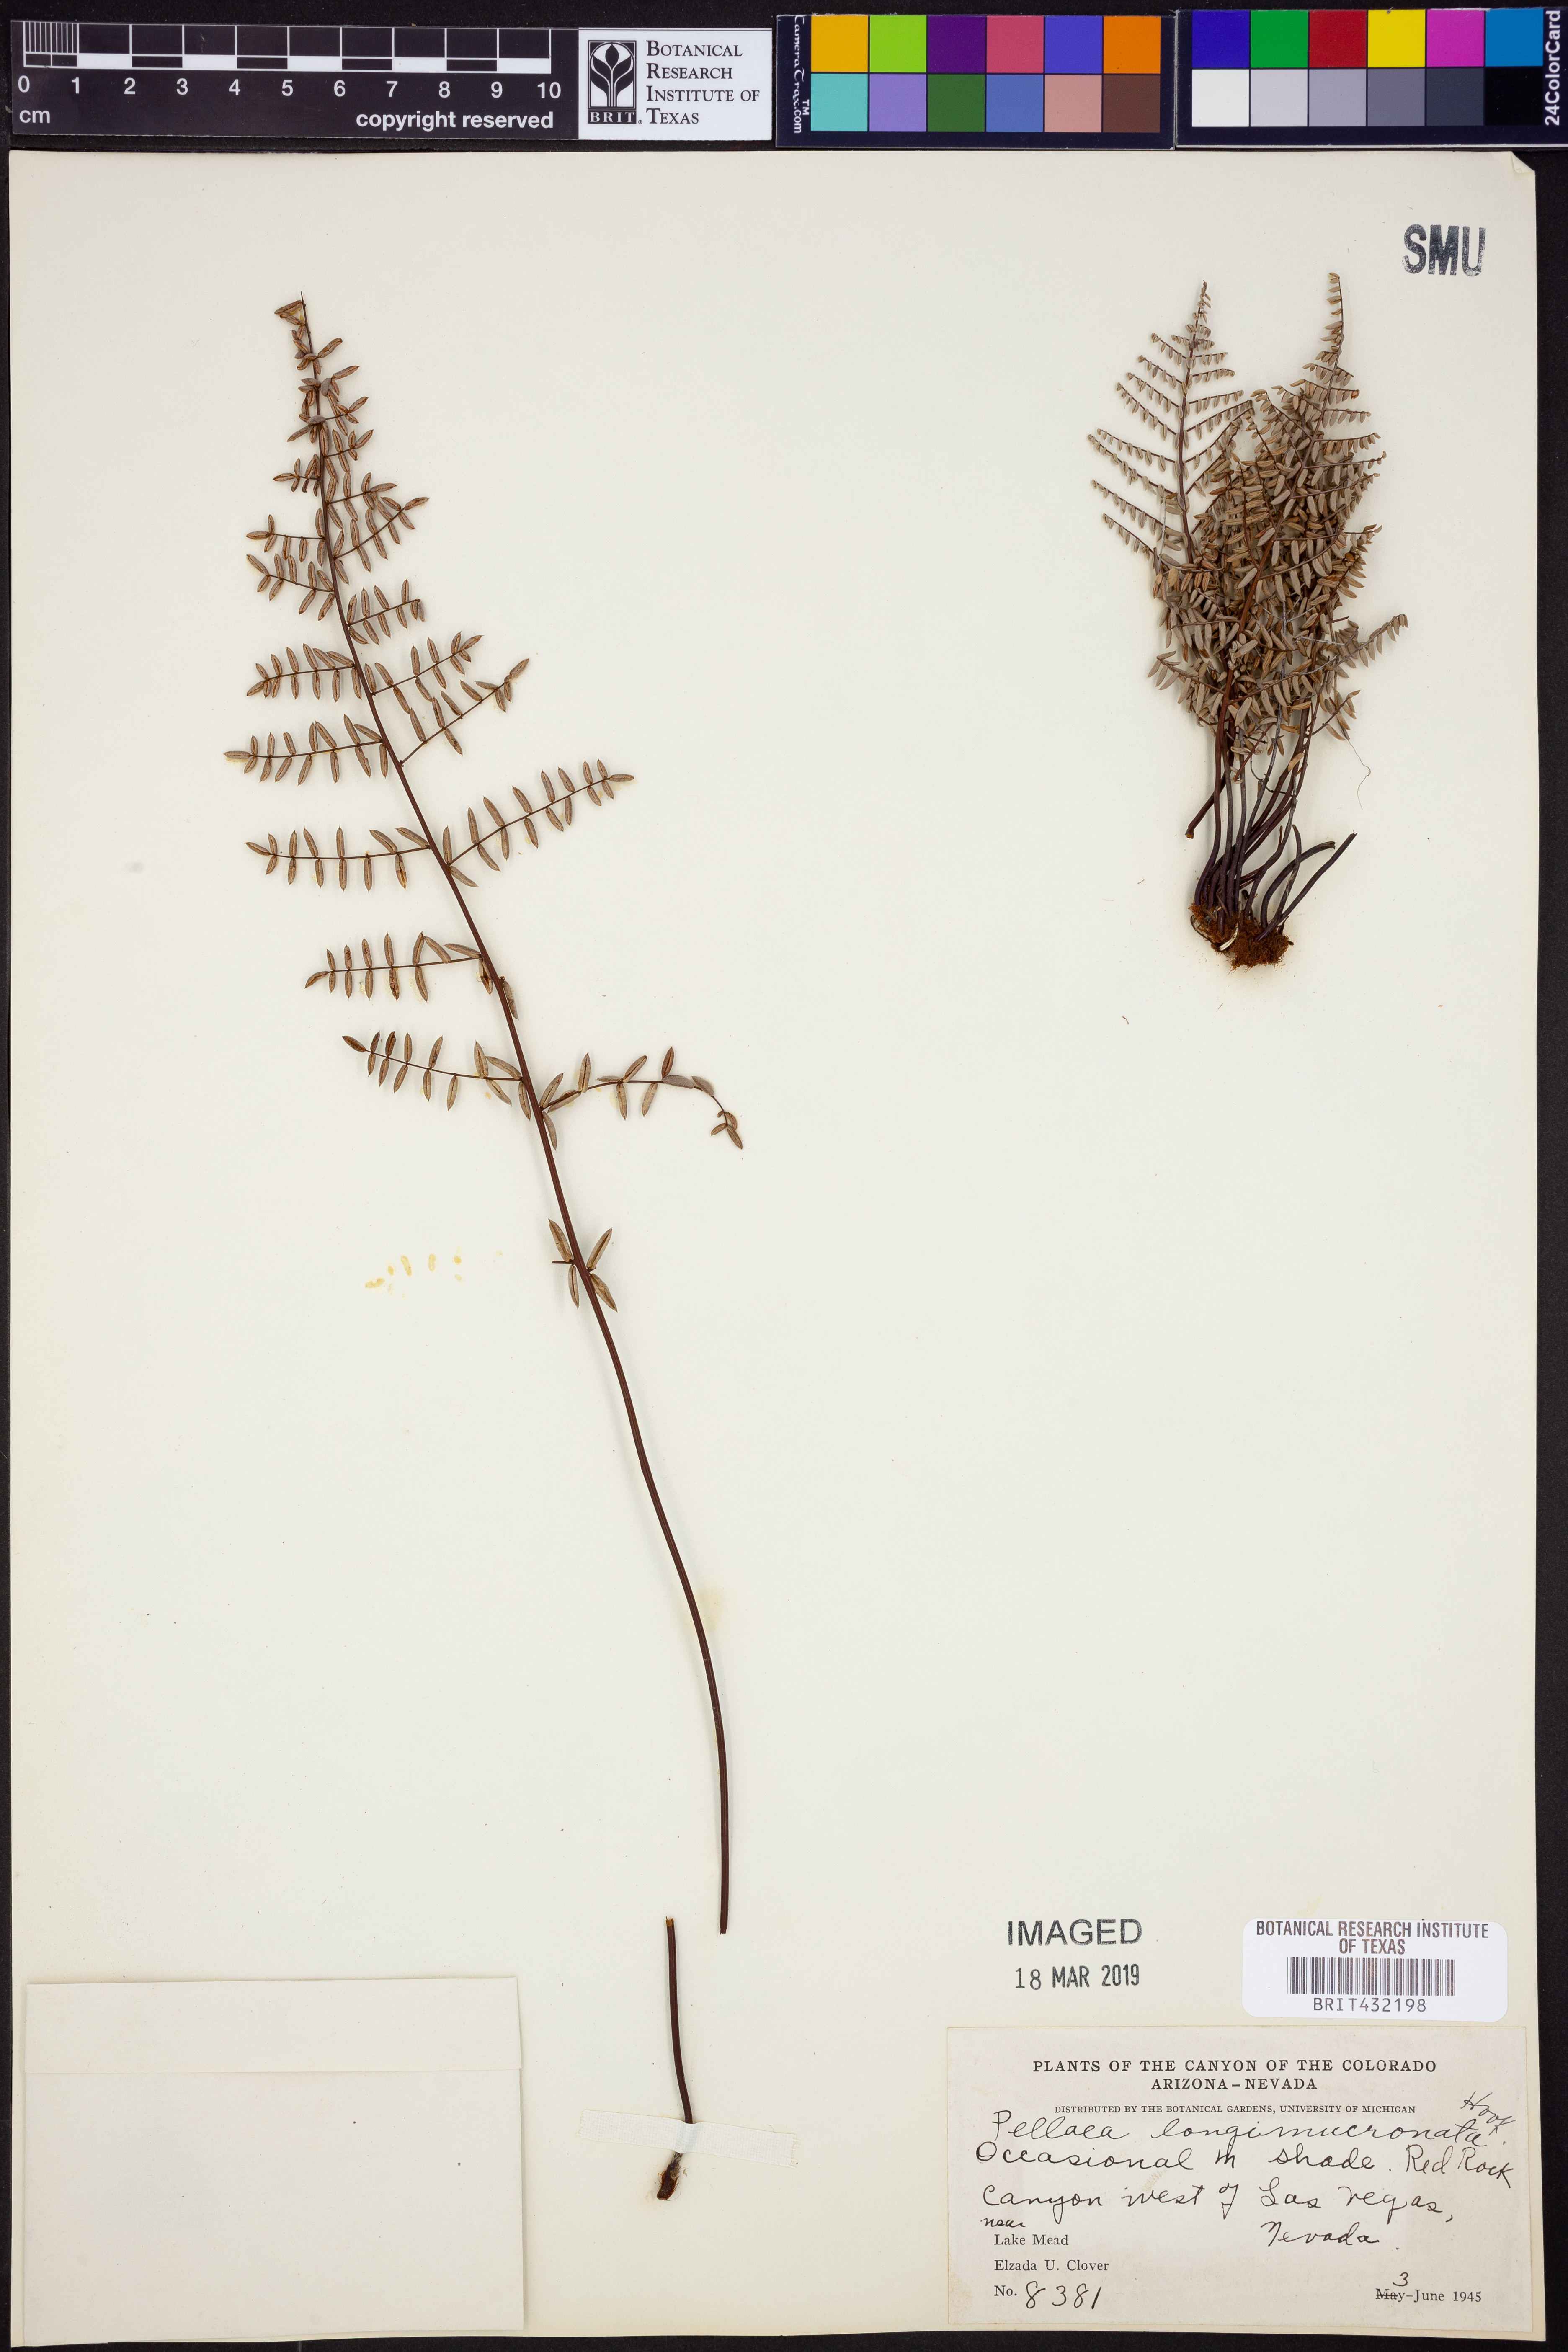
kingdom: Plantae
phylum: Tracheophyta
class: Polypodiopsida
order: Polypodiales
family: Pteridaceae
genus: Pellaea
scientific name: Pellaea mucronata
